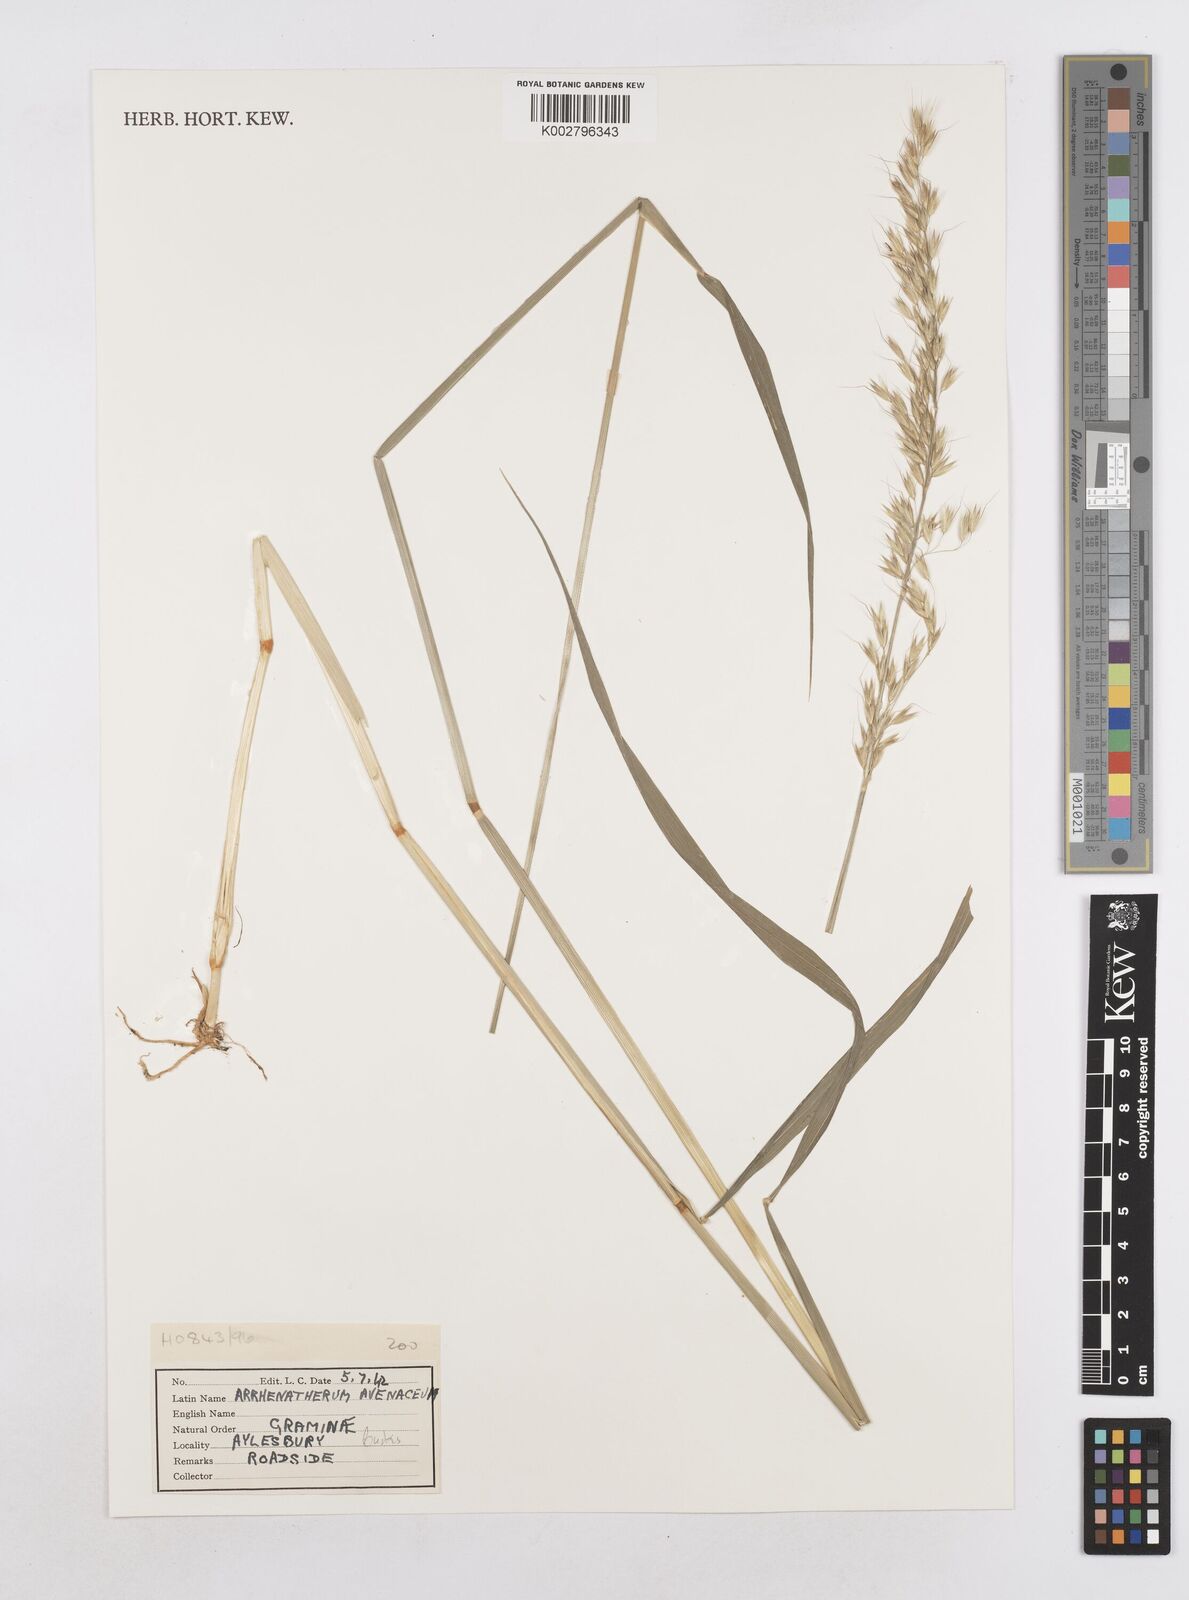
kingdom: Plantae
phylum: Tracheophyta
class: Liliopsida
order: Poales
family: Poaceae
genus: Arrhenatherum
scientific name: Arrhenatherum elatius
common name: Tall oatgrass
